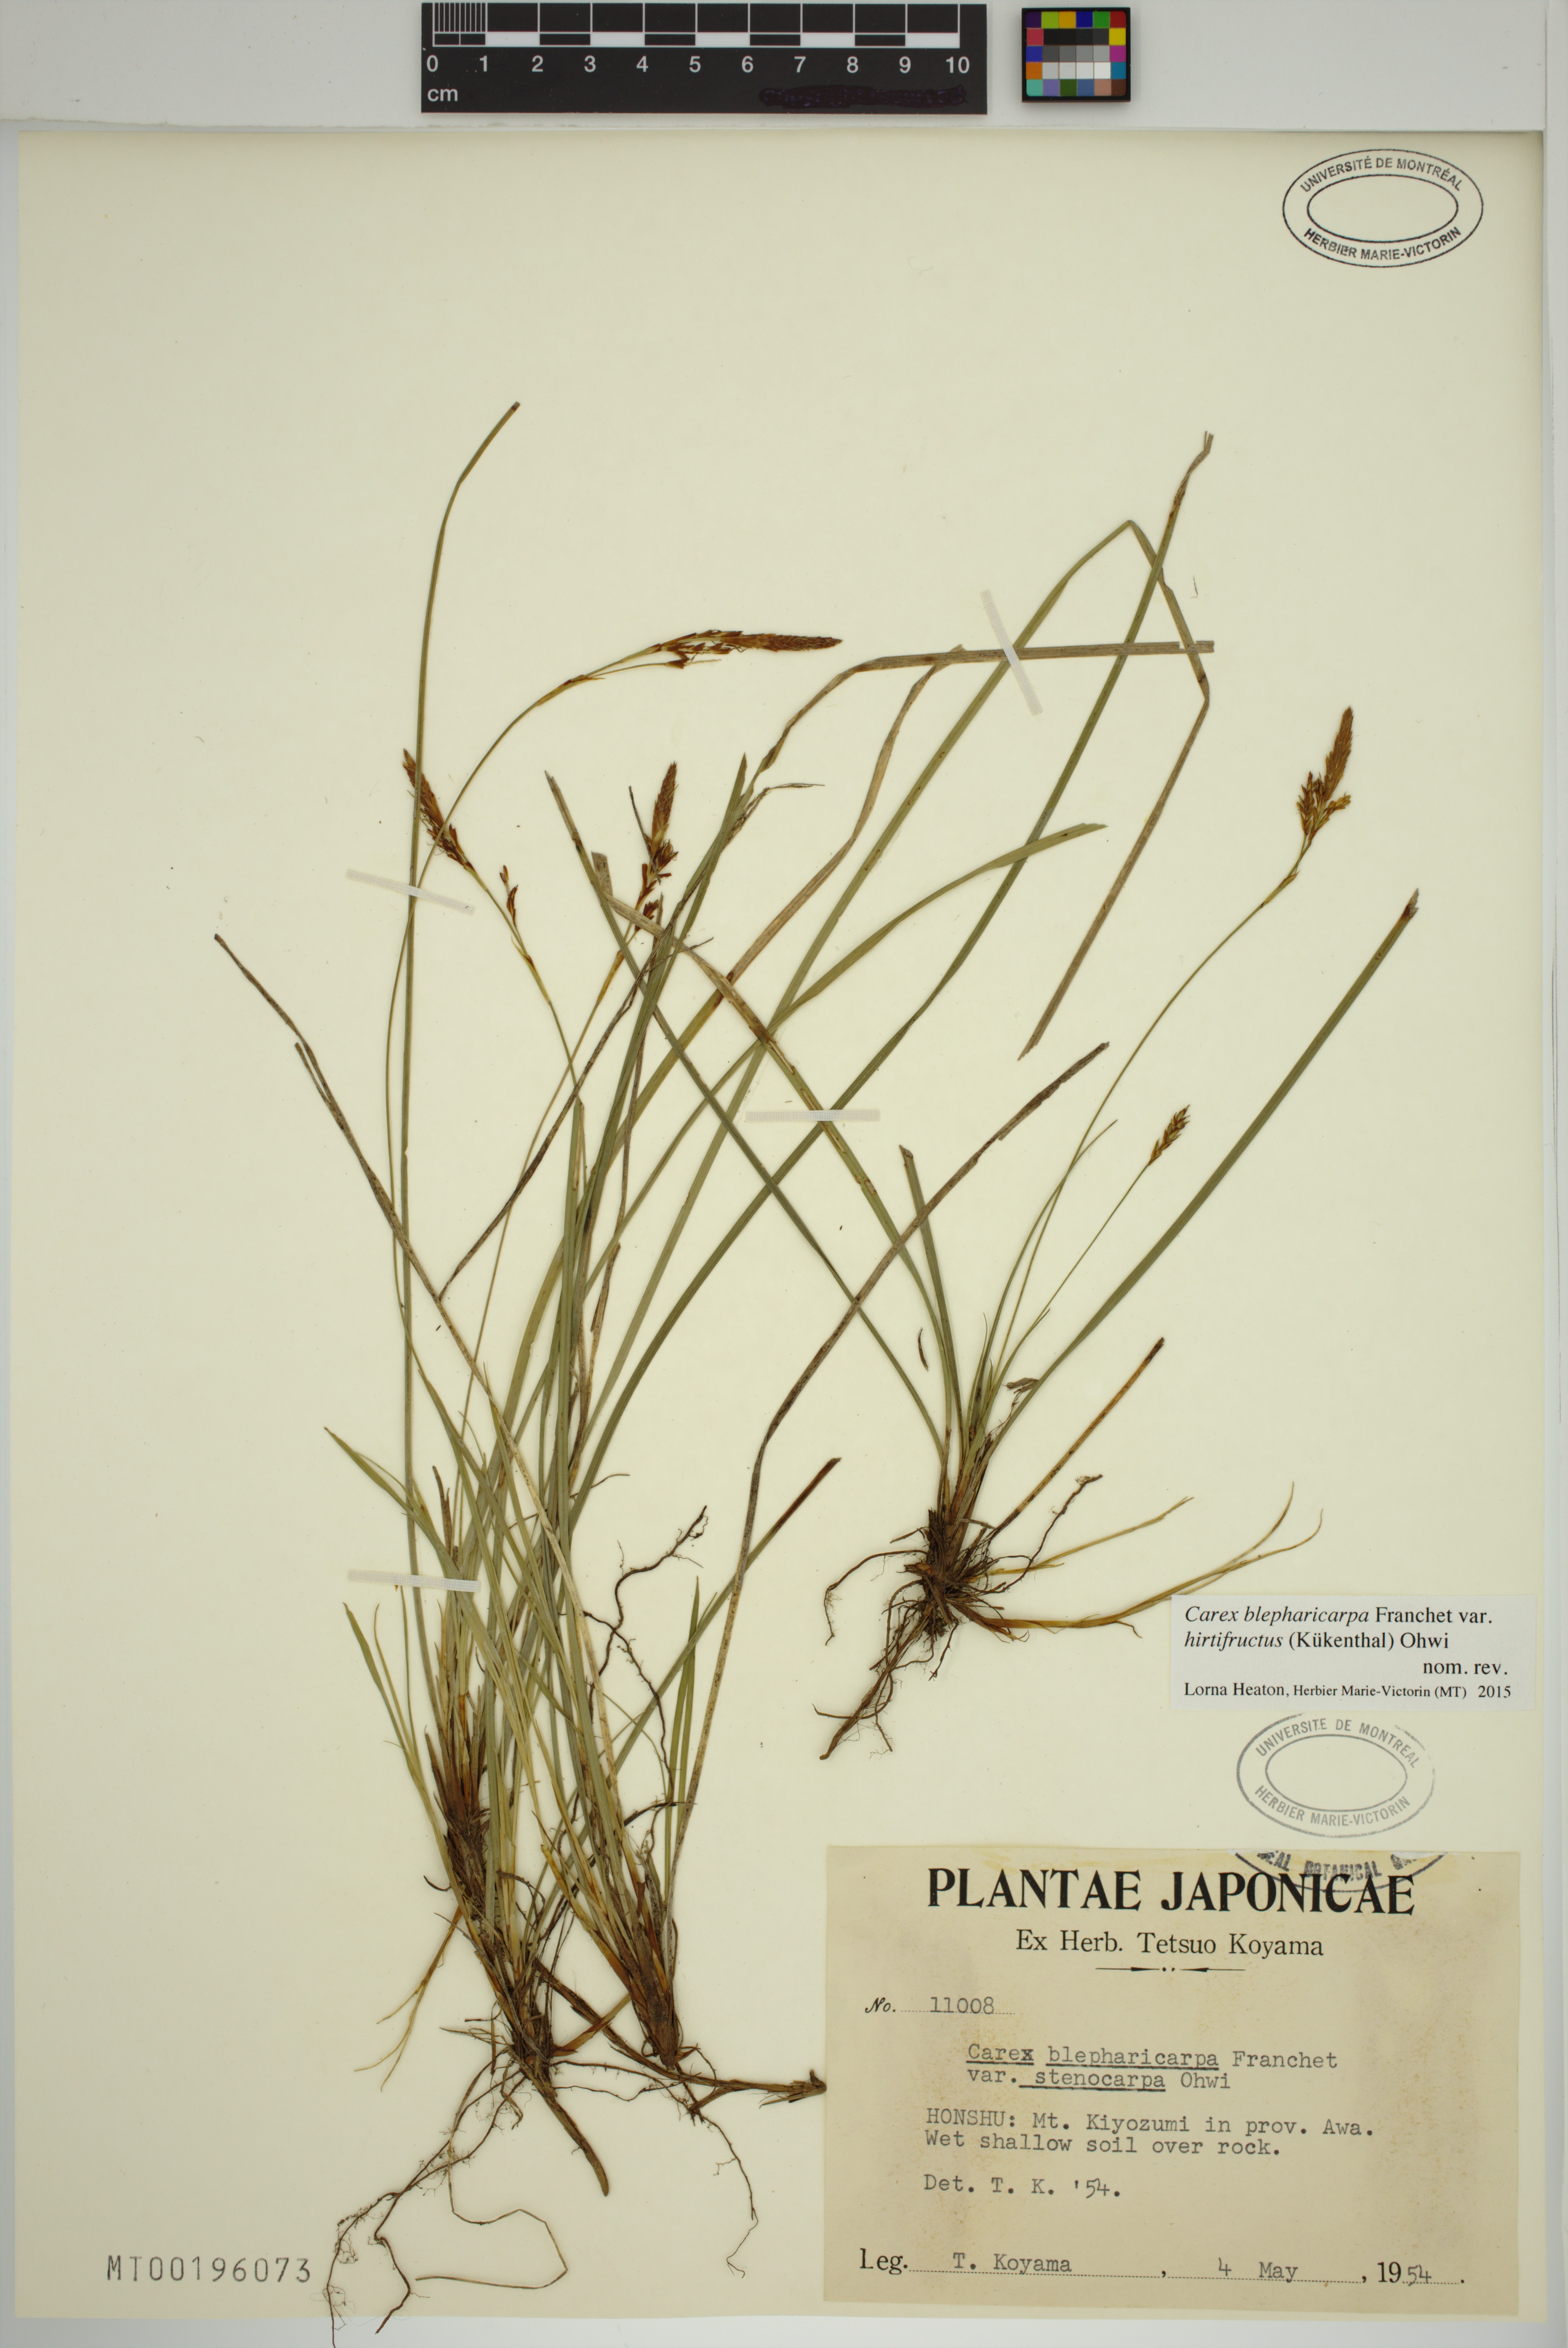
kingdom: Plantae
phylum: Tracheophyta
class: Liliopsida
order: Poales
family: Cyperaceae
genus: Carex
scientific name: Carex blepharicarpa
